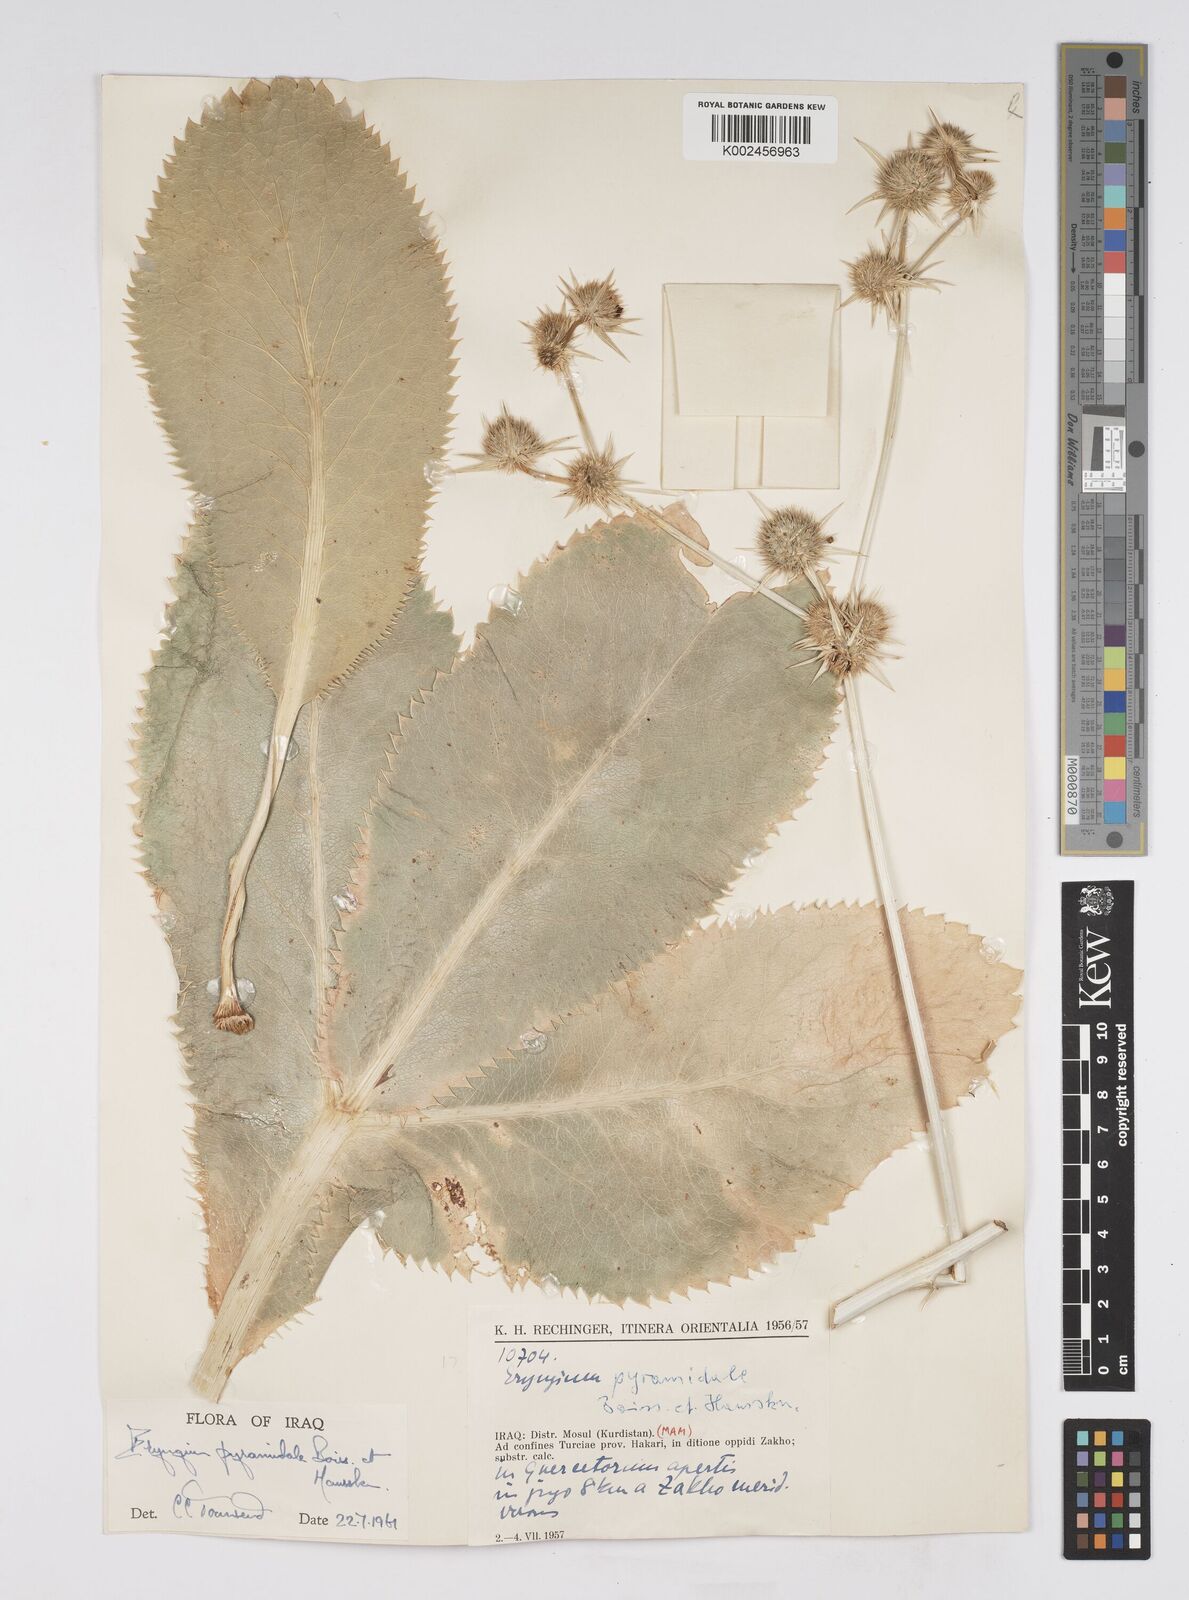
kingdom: Plantae
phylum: Tracheophyta
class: Magnoliopsida
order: Apiales
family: Apiaceae
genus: Eryngium
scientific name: Eryngium pyramidale
